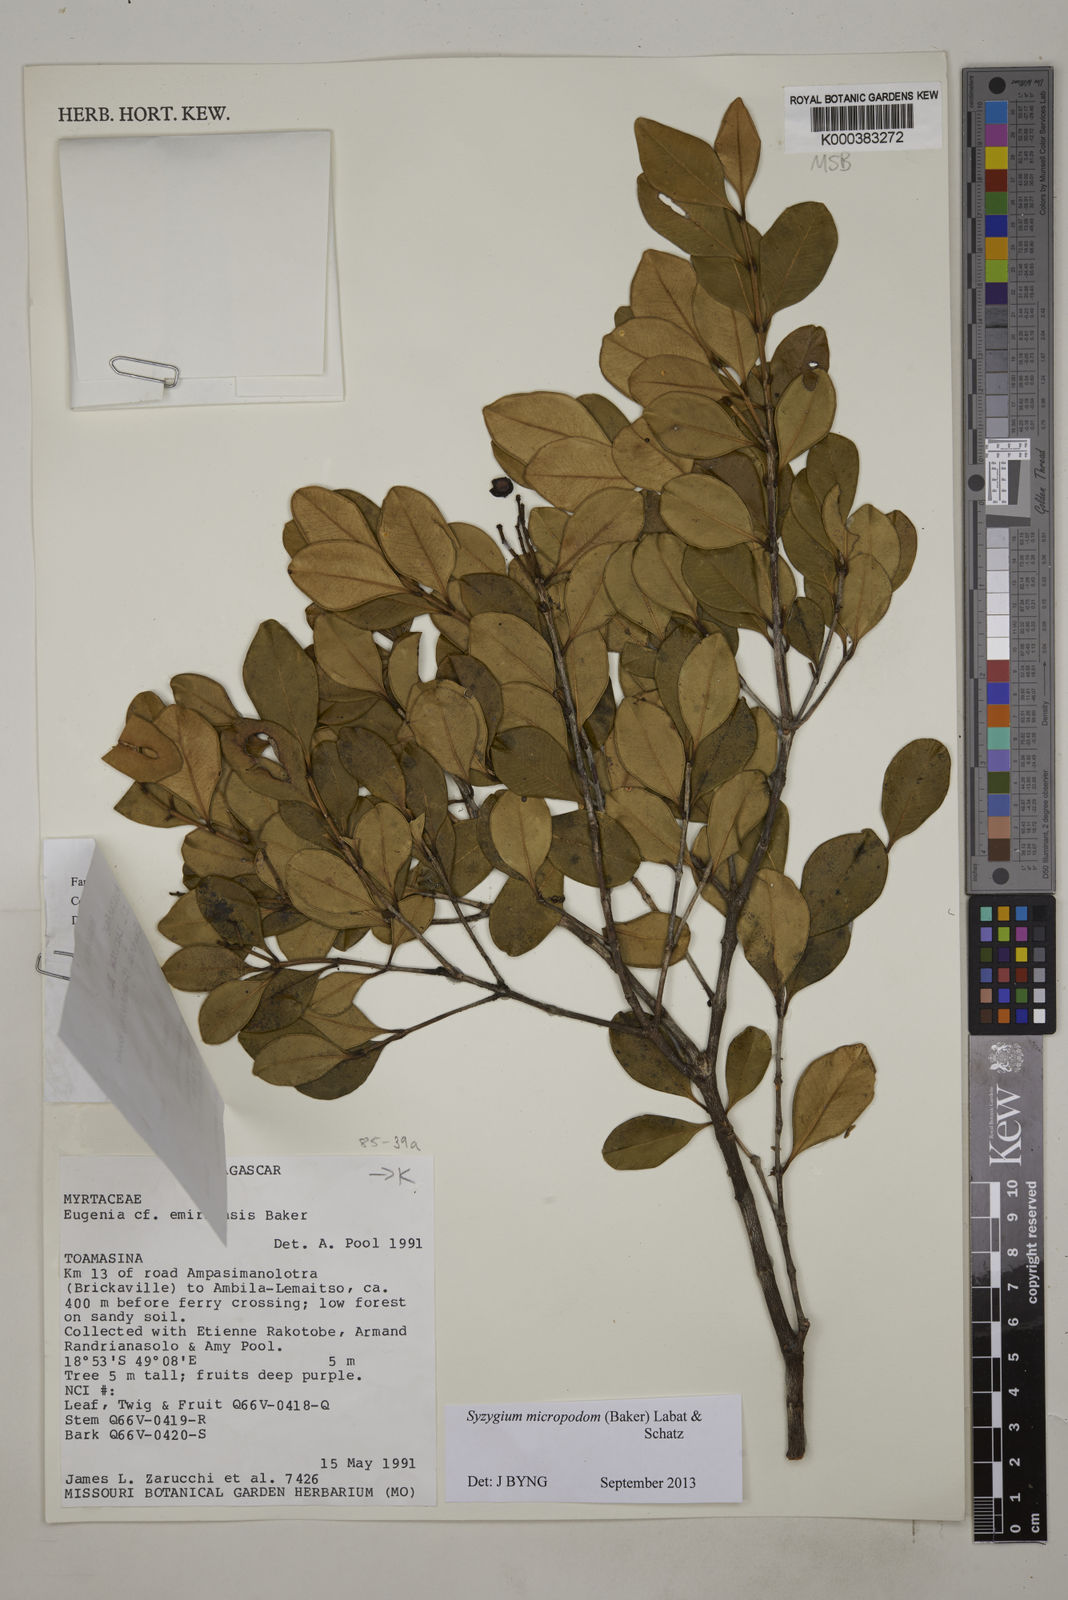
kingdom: Plantae
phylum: Tracheophyta
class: Magnoliopsida
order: Myrtales
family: Myrtaceae
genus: Syzygium
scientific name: Syzygium emirnense
